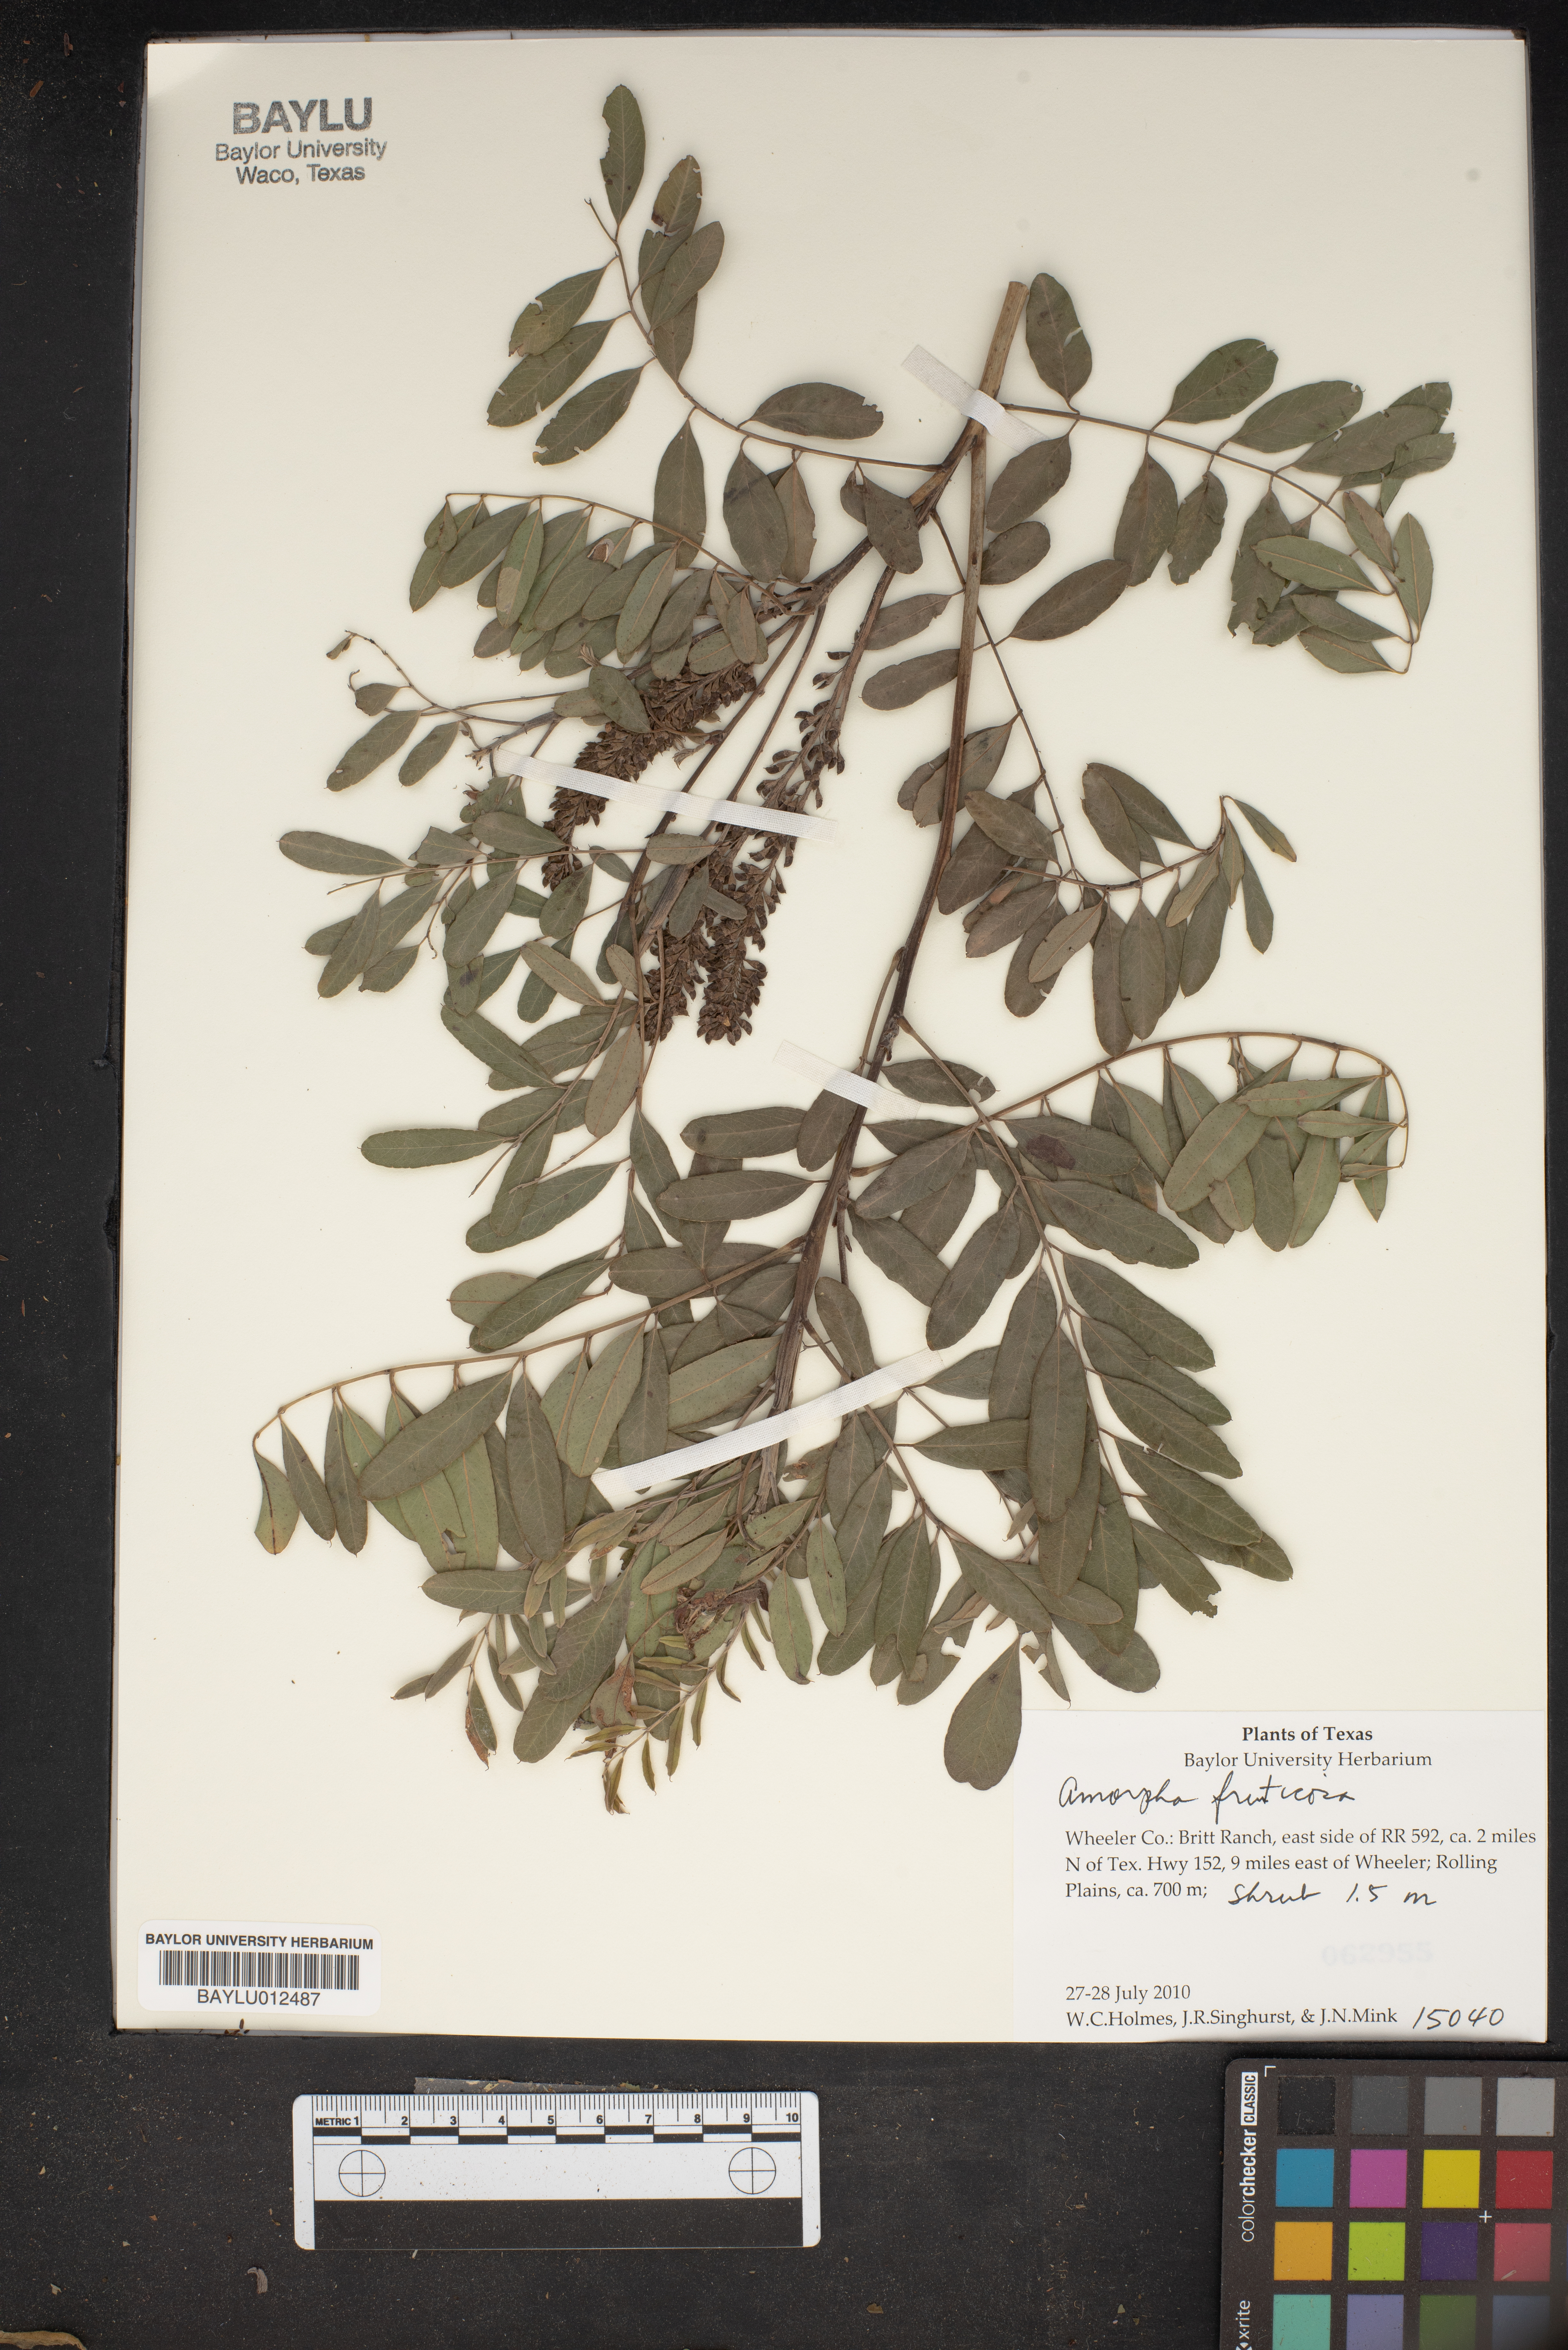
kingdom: Plantae
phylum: Tracheophyta
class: Magnoliopsida
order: Fabales
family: Fabaceae
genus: Amorpha
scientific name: Amorpha fruticosa
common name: False indigo
